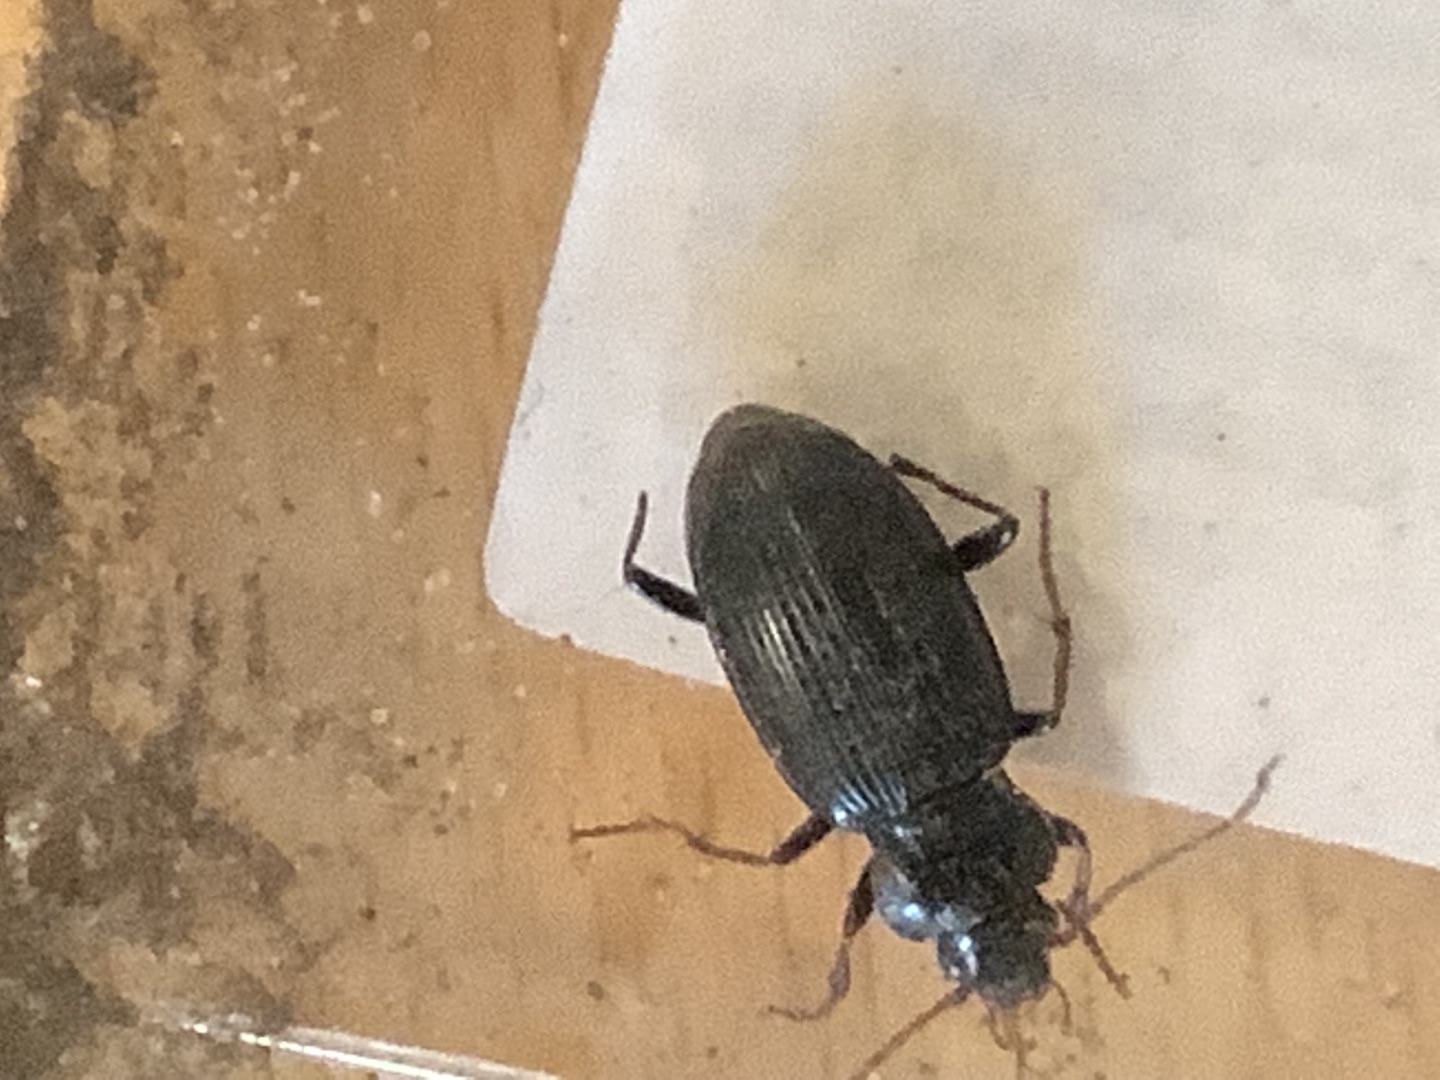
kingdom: Animalia
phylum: Arthropoda
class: Insecta
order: Coleoptera
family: Carabidae
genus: Nebria
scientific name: Nebria
